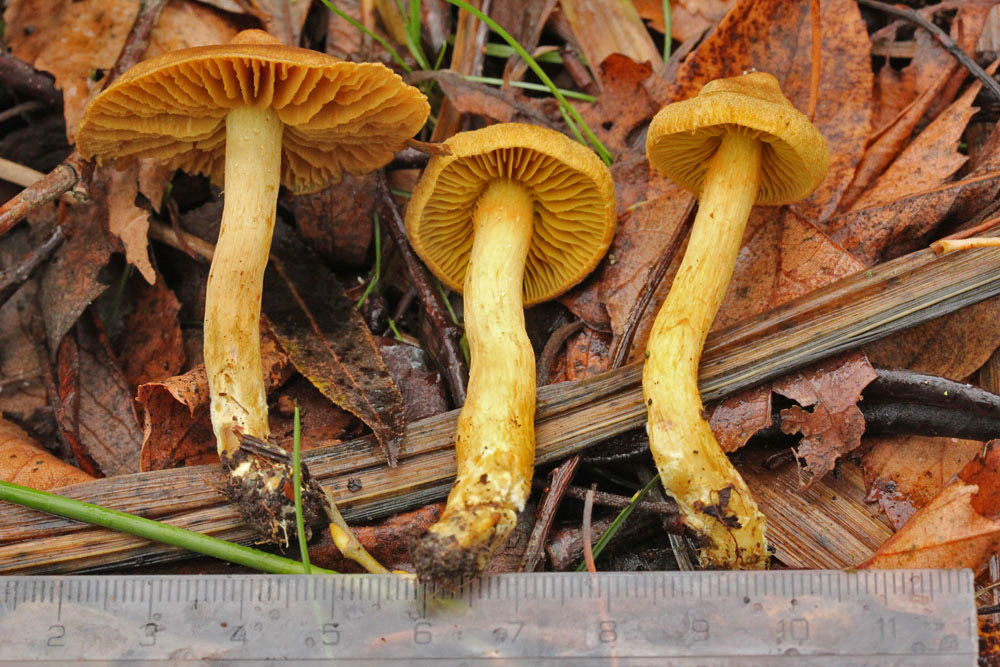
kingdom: Fungi
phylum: Basidiomycota
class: Agaricomycetes
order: Agaricales
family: Cortinariaceae
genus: Cortinarius
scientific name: Cortinarius uliginosus
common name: mose-slørhat
